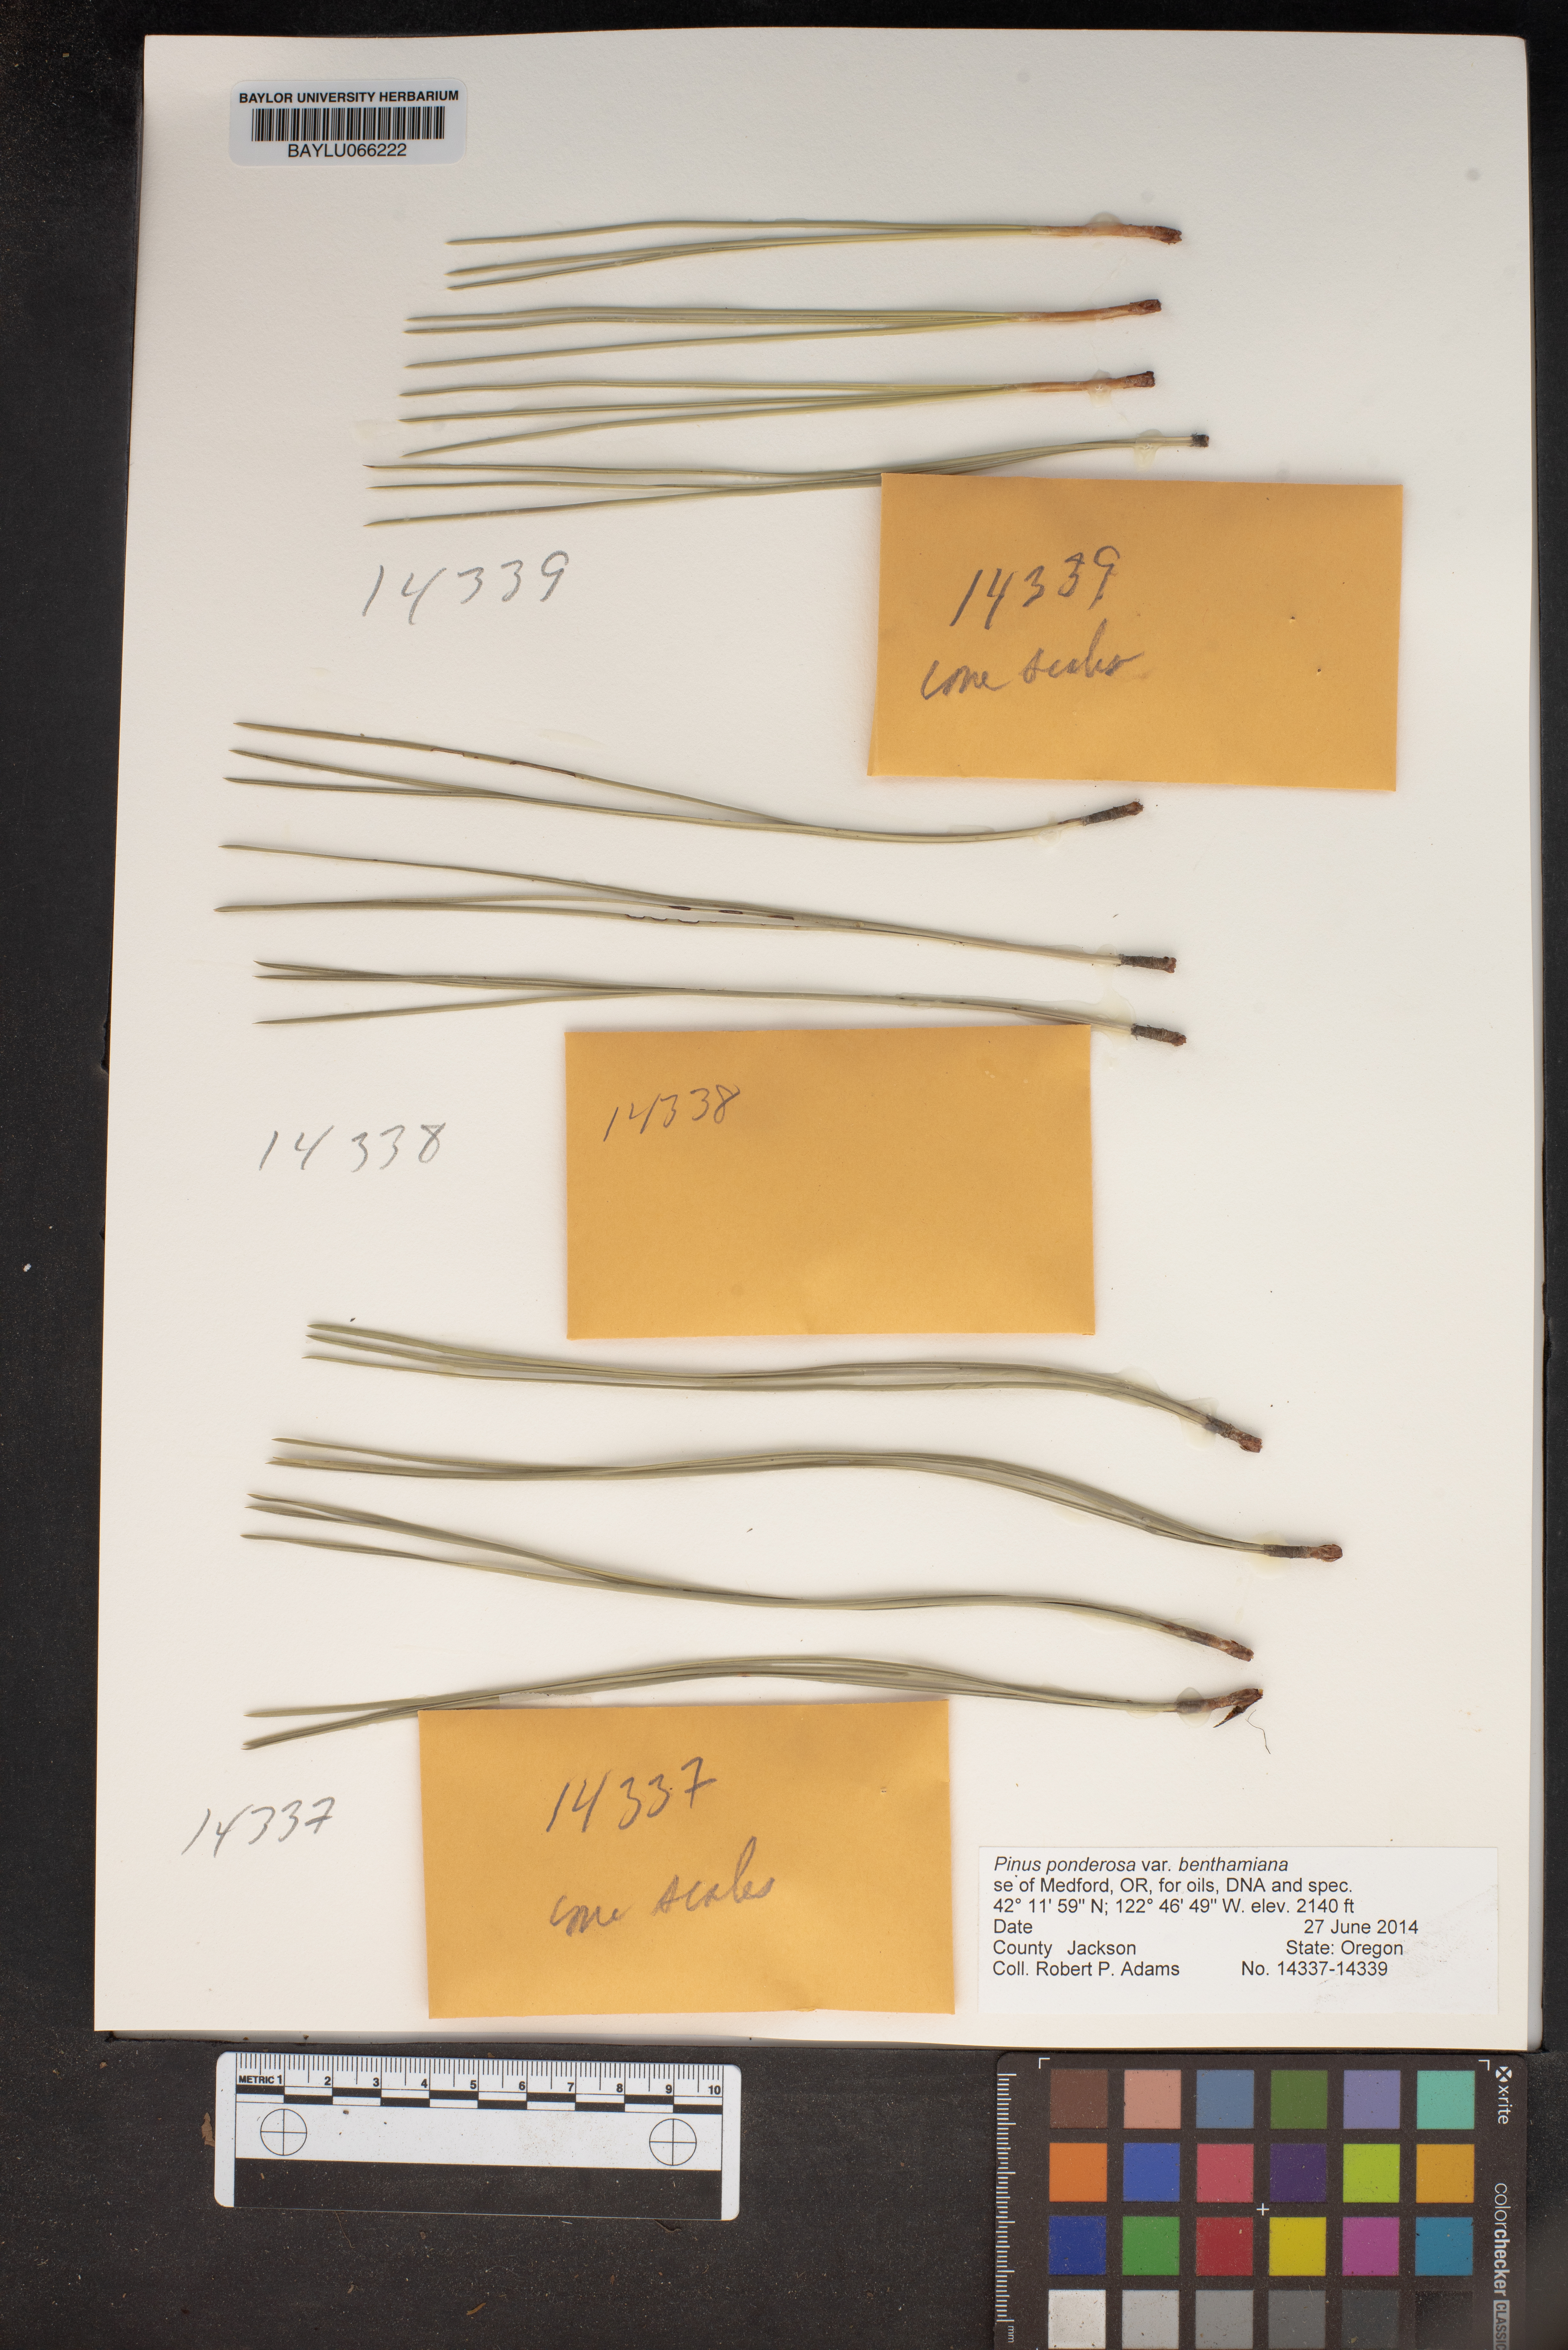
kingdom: Plantae
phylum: Tracheophyta
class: Pinopsida
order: Pinales
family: Pinaceae
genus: Pinus
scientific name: Pinus ponderosa
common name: Western yellow-pine
